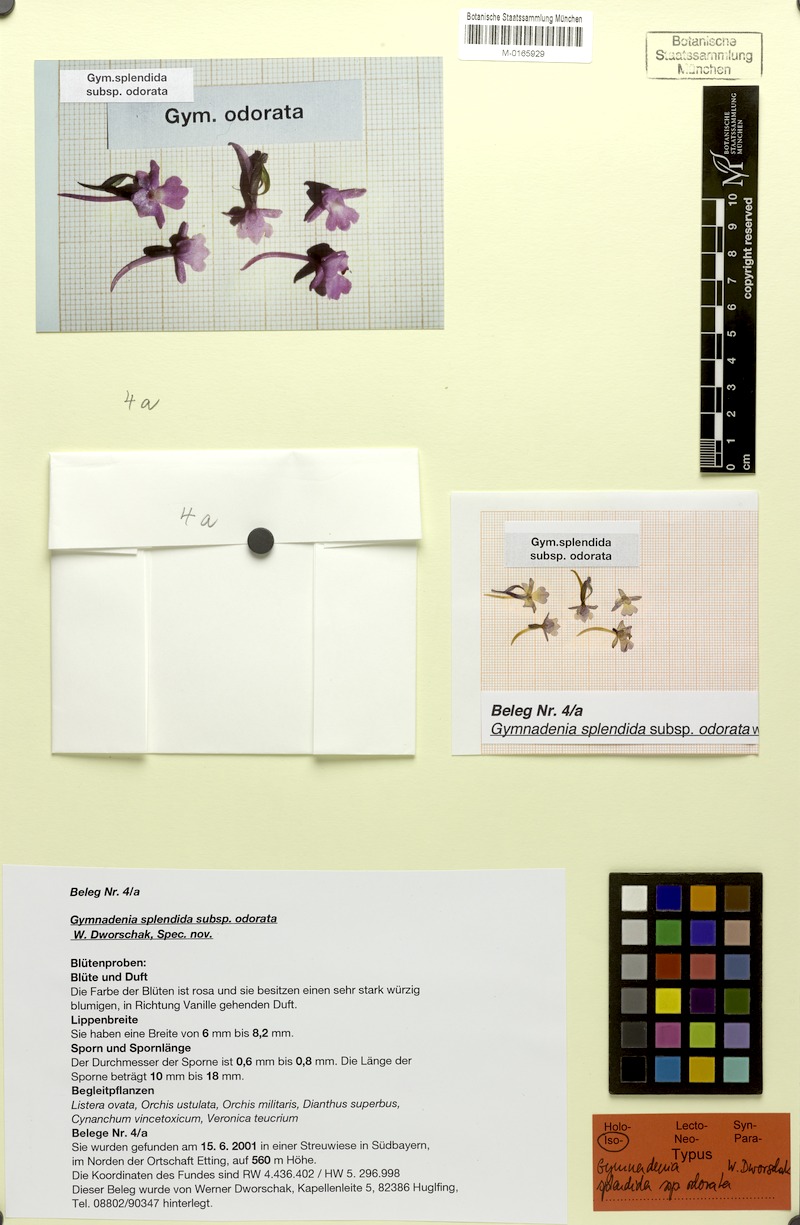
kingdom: Plantae
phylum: Tracheophyta
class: Liliopsida
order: Asparagales
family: Orchidaceae
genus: Gymnadenia
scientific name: Gymnadenia conopsea
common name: Fragrant orchid
